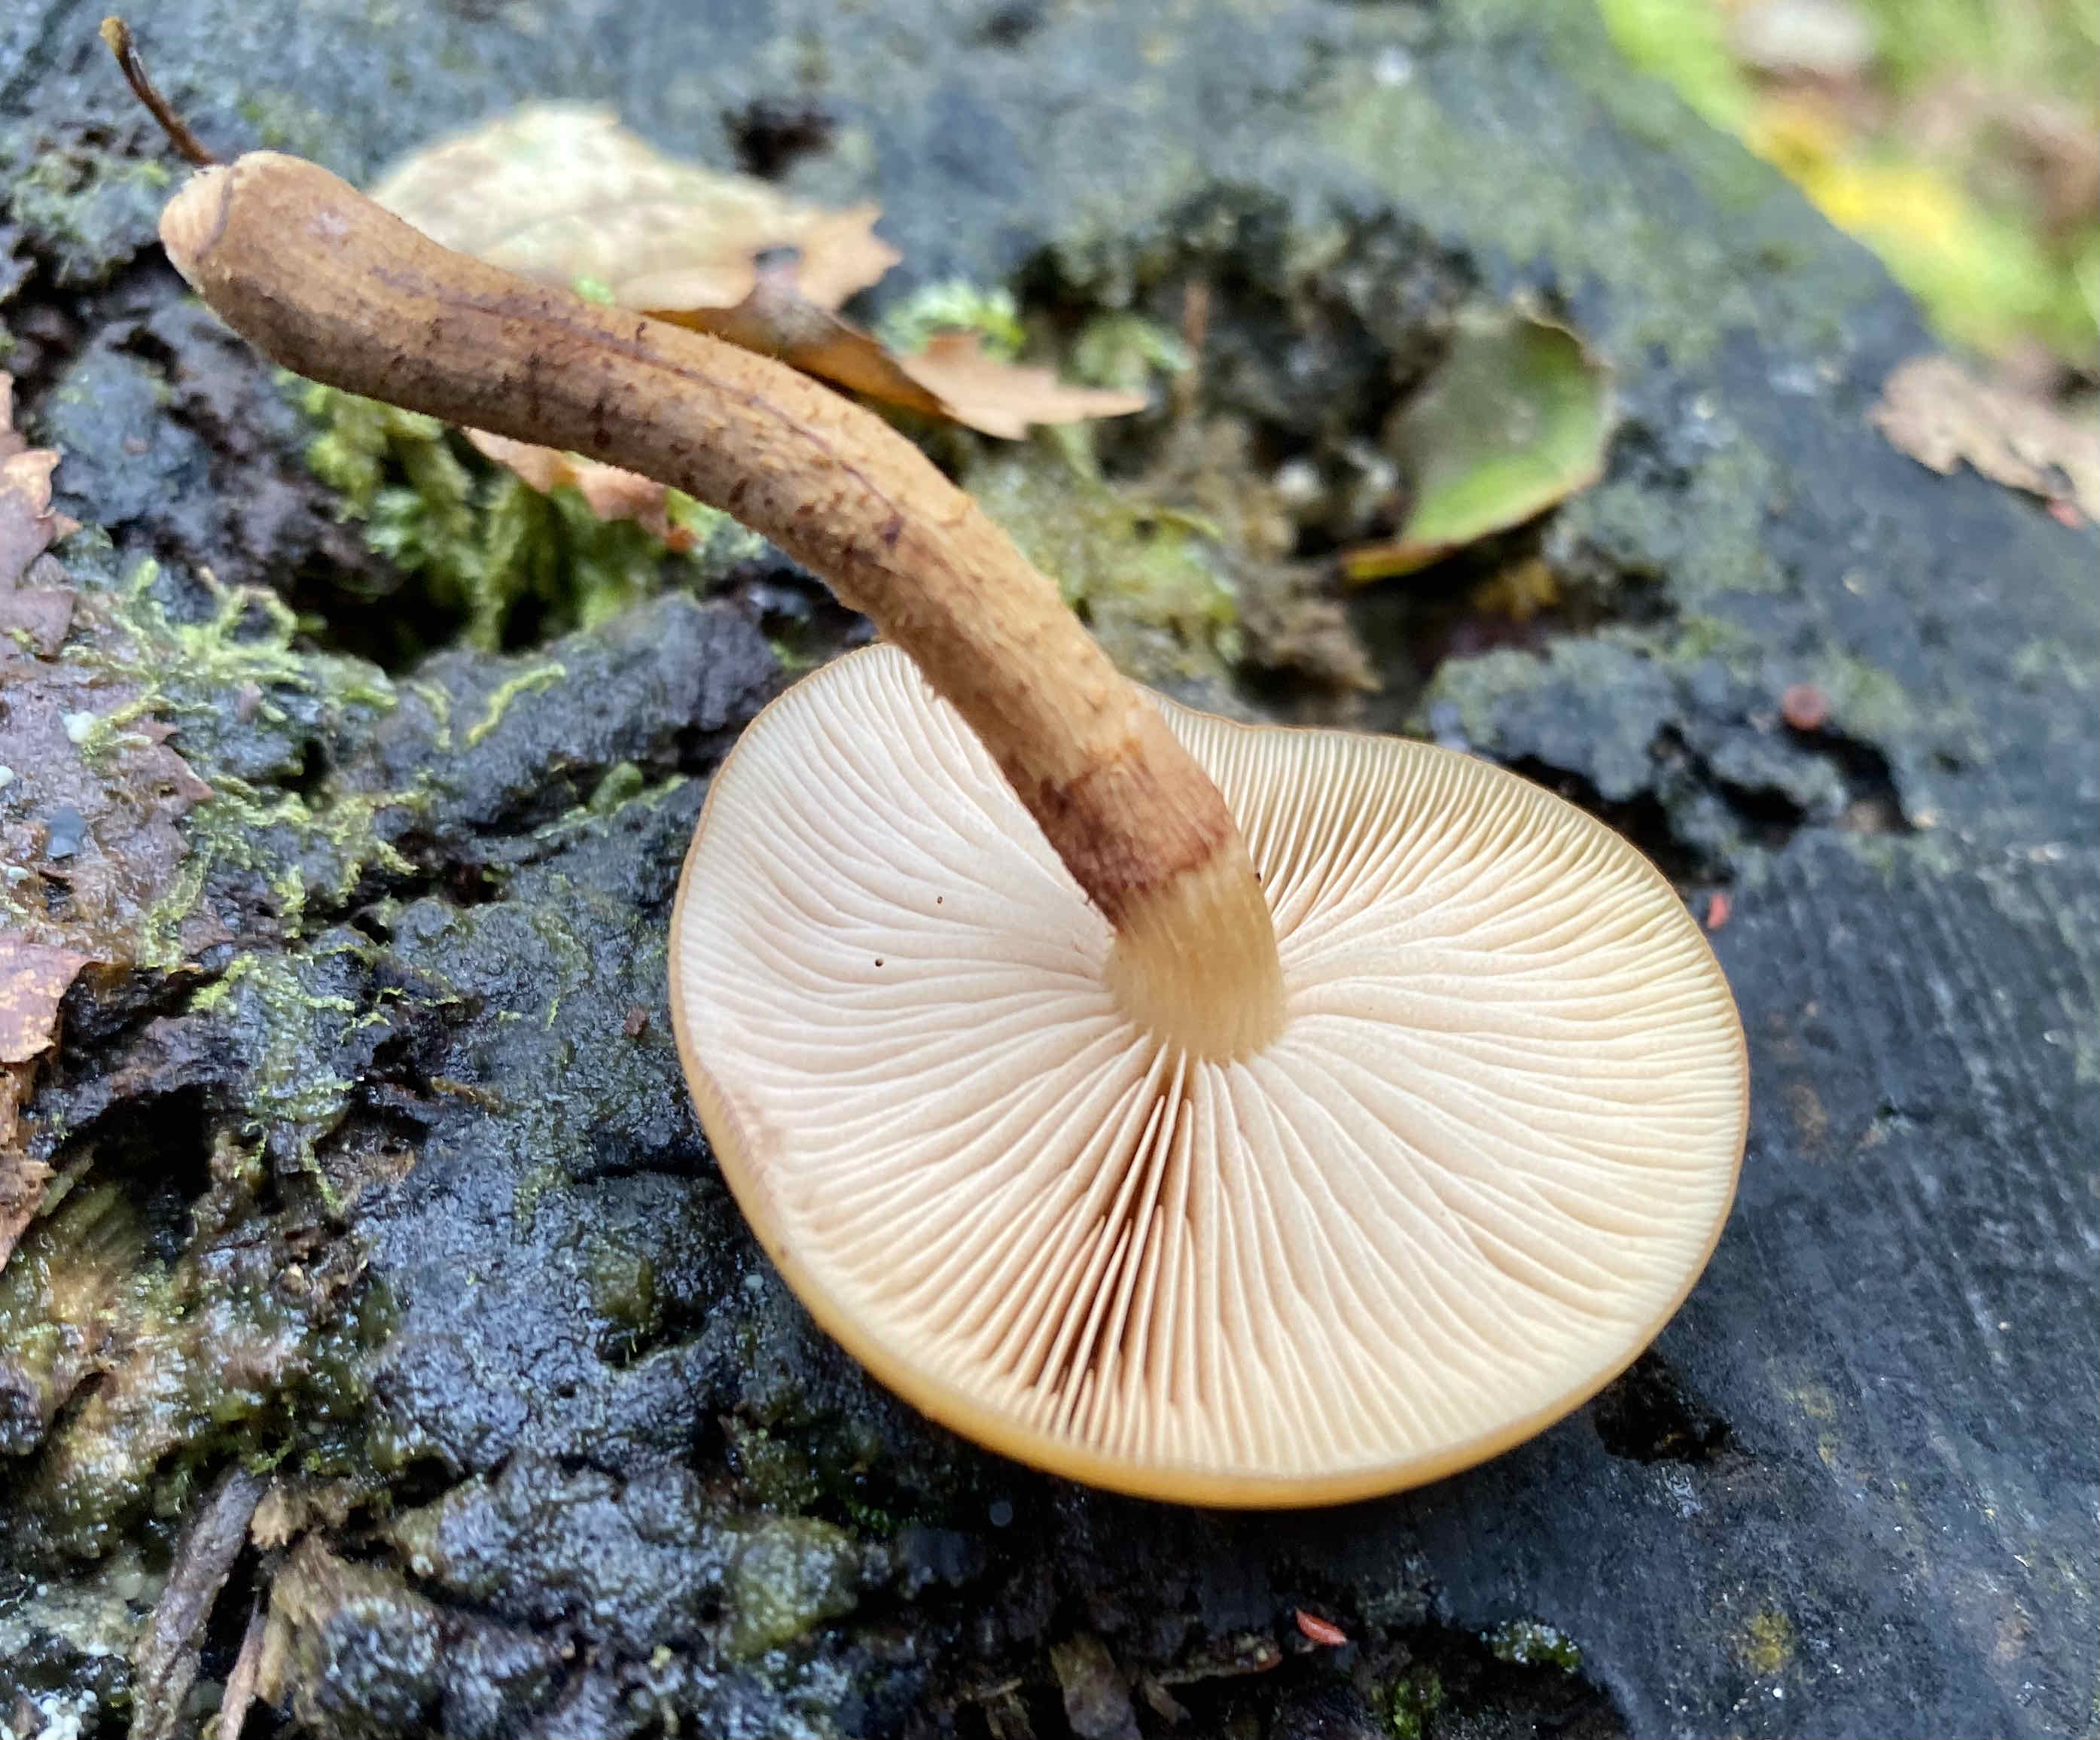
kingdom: Fungi
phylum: Basidiomycota
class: Agaricomycetes
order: Agaricales
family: Strophariaceae
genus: Kuehneromyces
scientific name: Kuehneromyces mutabilis
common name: foranderlig skælhat
